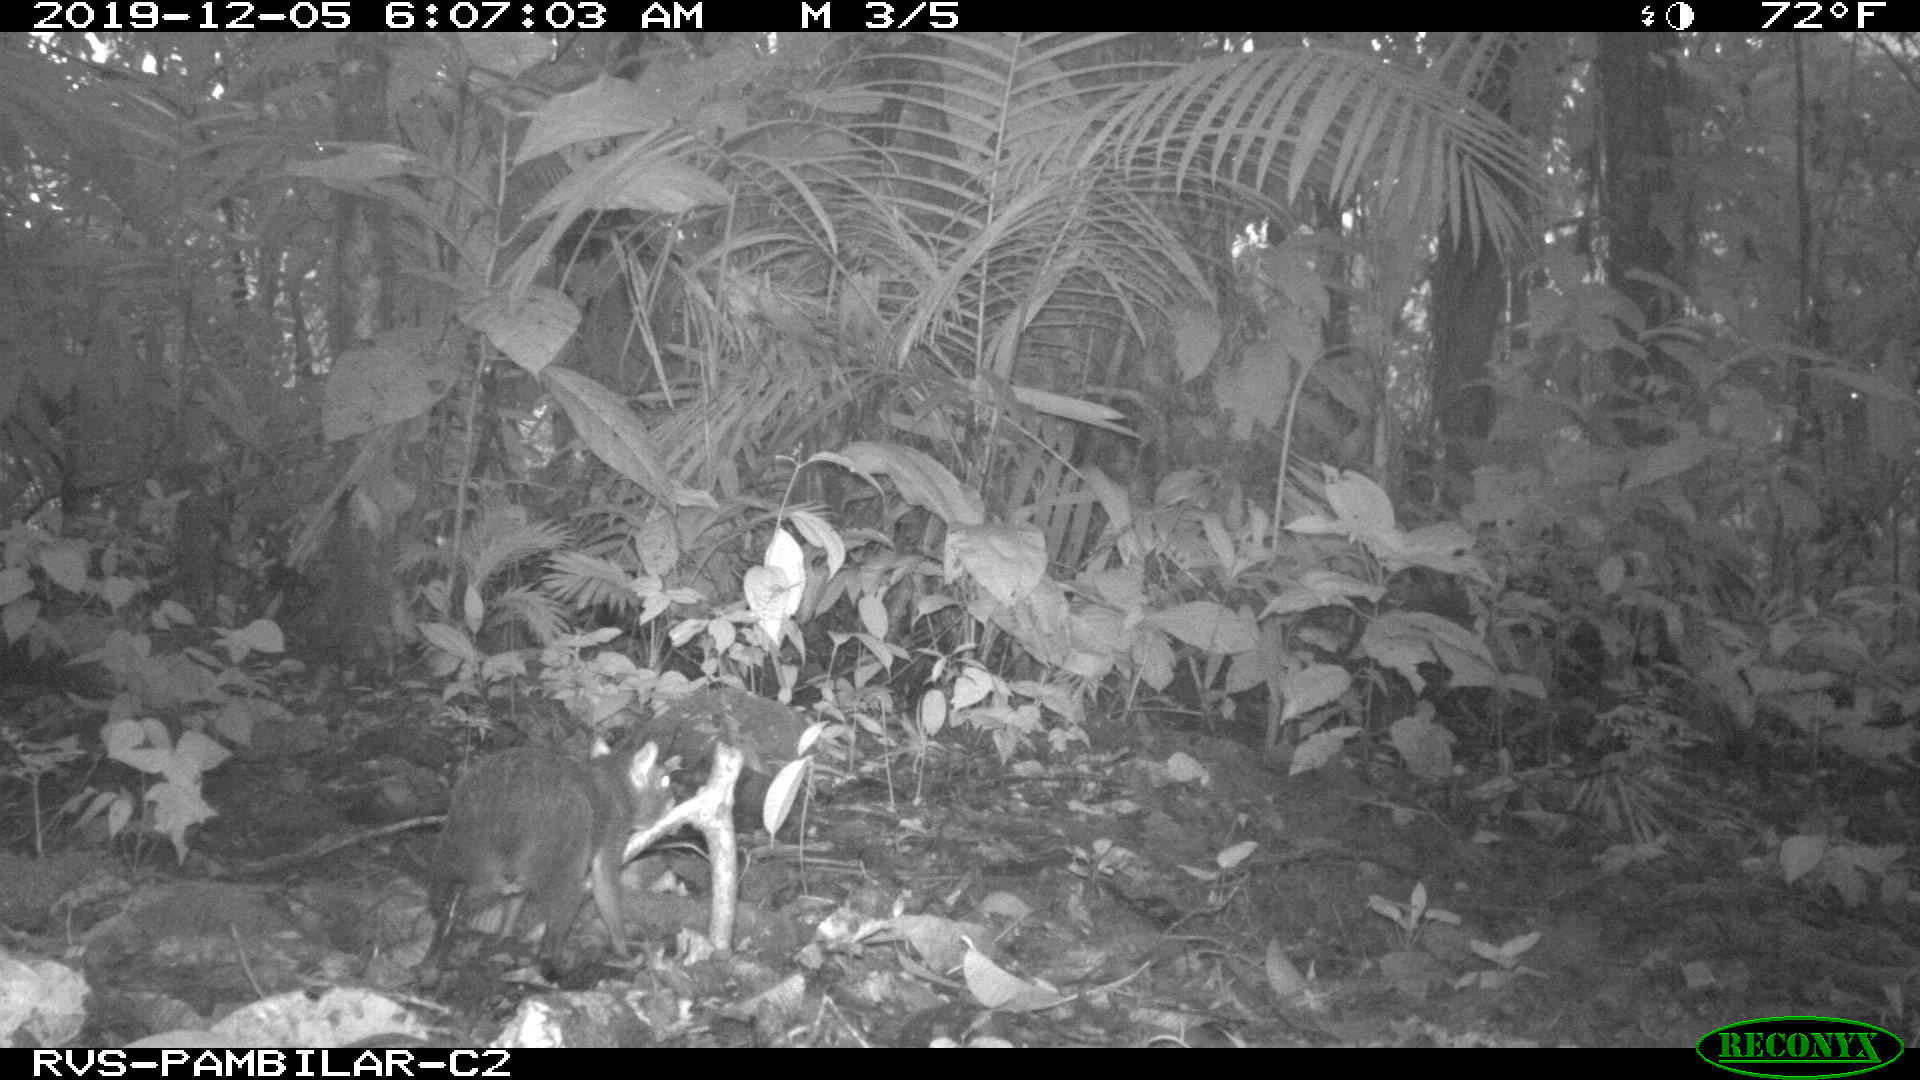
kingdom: Animalia
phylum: Chordata
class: Mammalia
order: Rodentia
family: Dasyproctidae
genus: Dasyprocta
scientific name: Dasyprocta punctata
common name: Central american agouti
